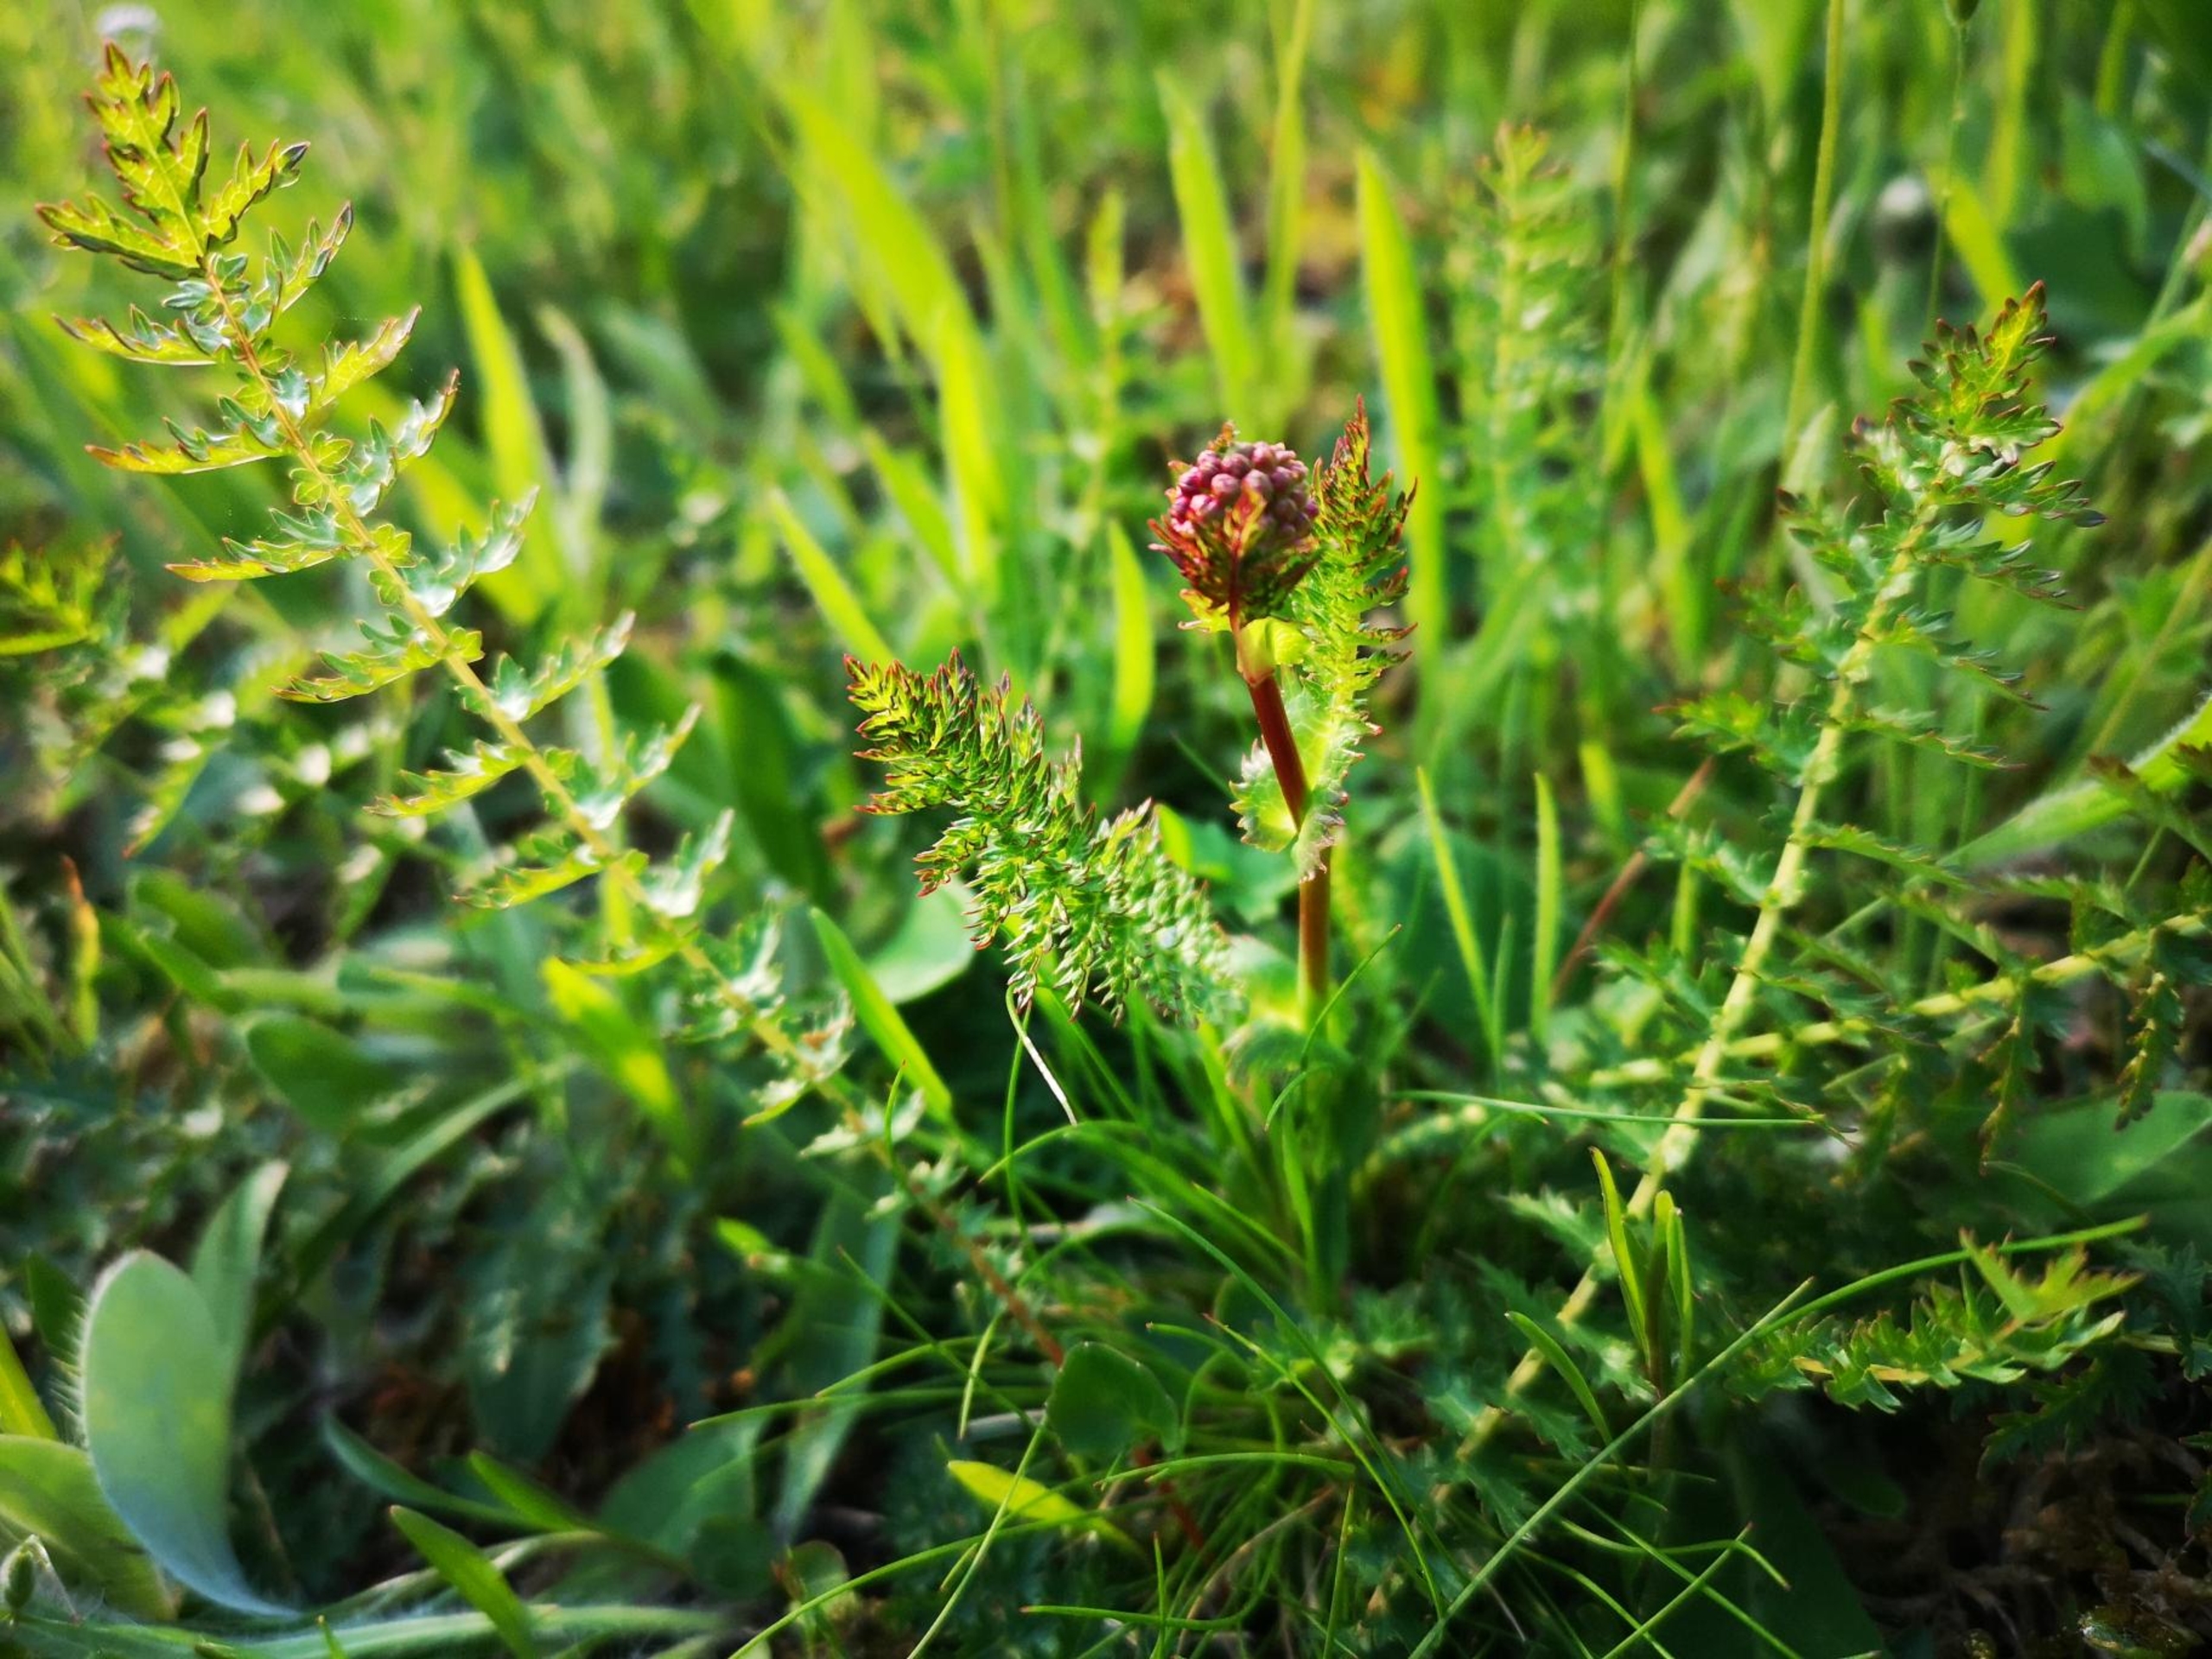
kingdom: Plantae
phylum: Tracheophyta
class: Magnoliopsida
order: Rosales
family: Rosaceae
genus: Filipendula
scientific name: Filipendula vulgaris
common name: Knoldet mjødurt
